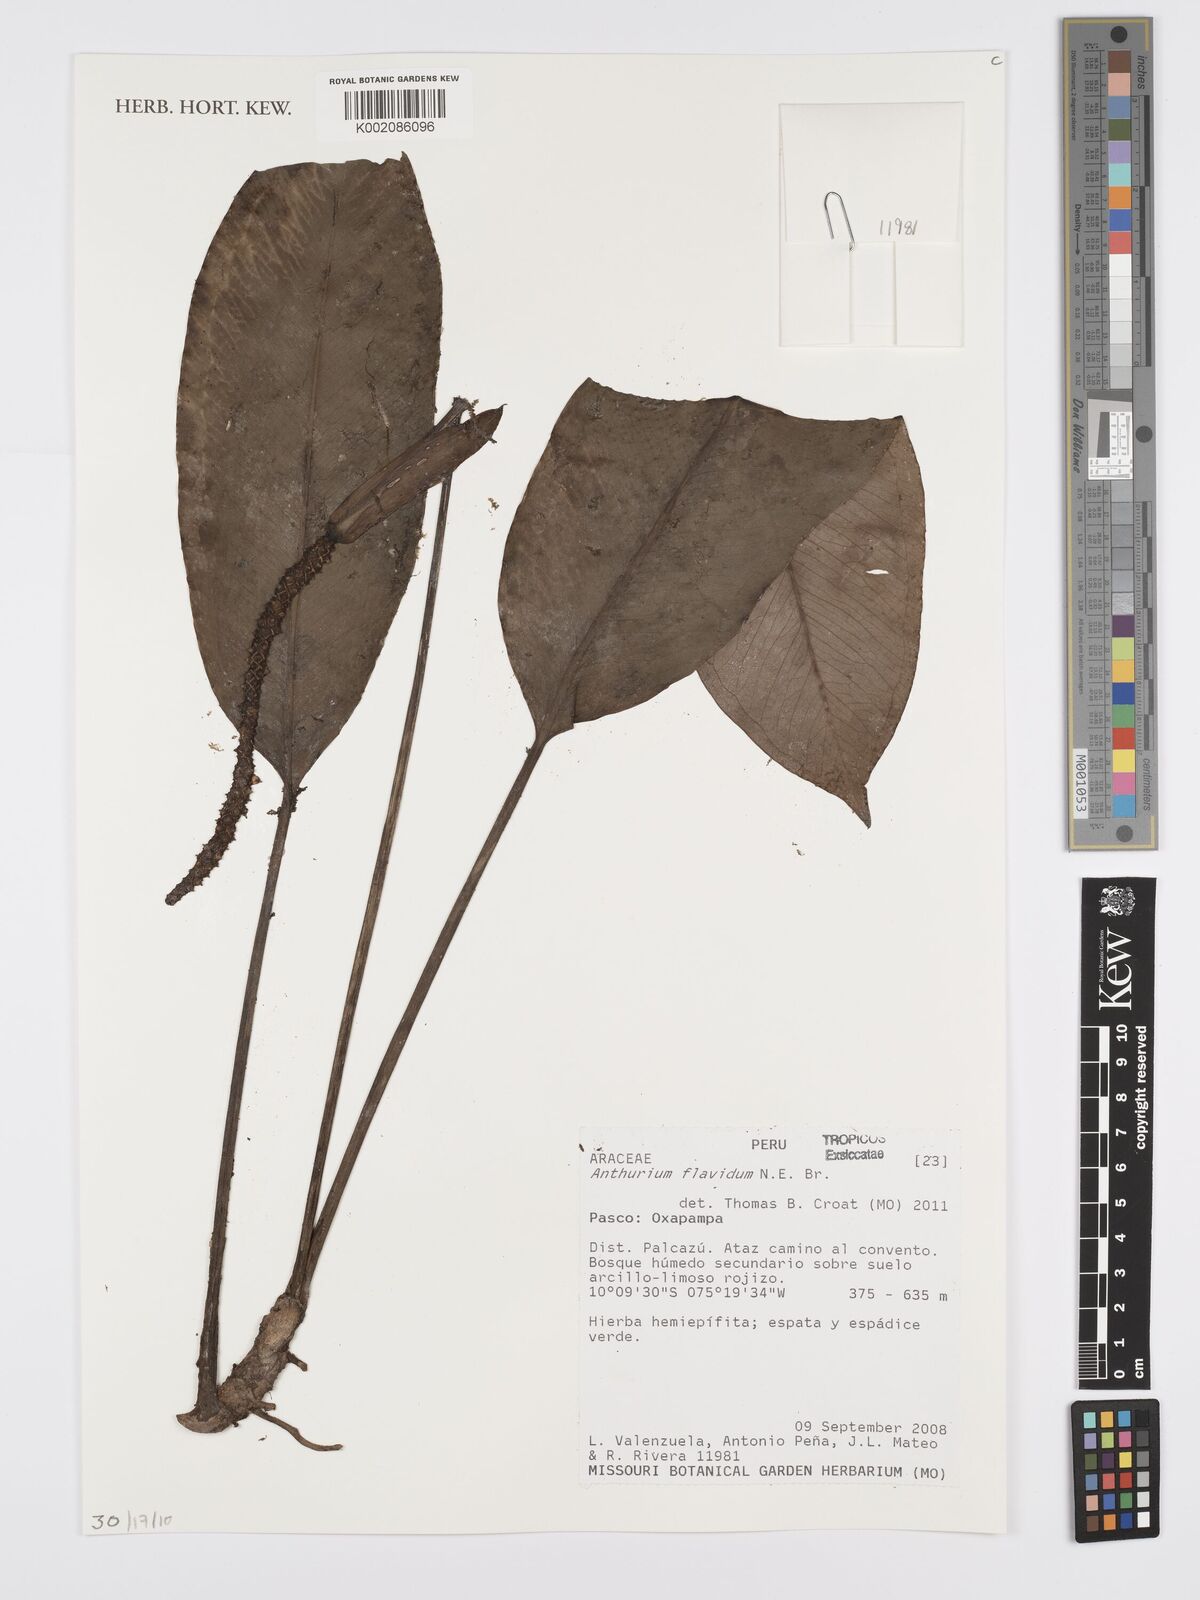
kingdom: Plantae
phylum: Tracheophyta
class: Liliopsida
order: Alismatales
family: Araceae
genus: Anthurium
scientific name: Anthurium flavidum
